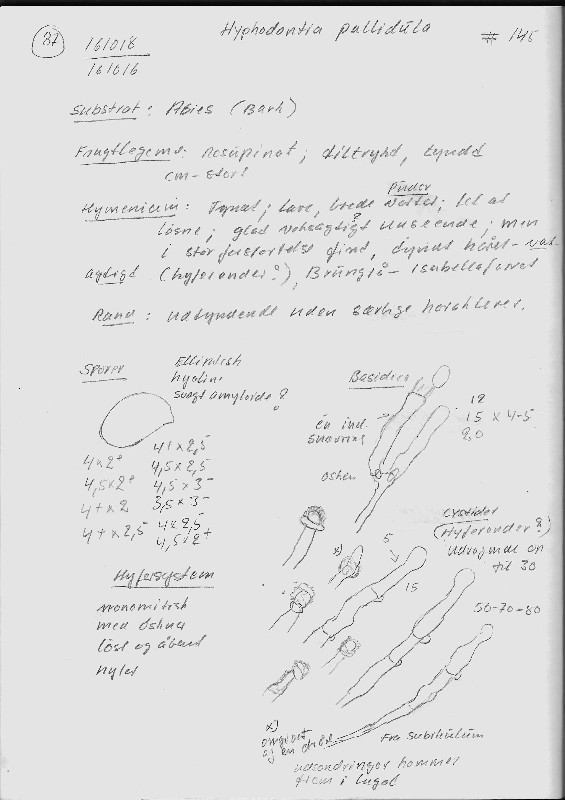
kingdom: Fungi
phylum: Basidiomycota
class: Agaricomycetes
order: Hymenochaetales
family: Hyphodontiaceae
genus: Hyphodontia
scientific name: Hyphodontia pallidula
